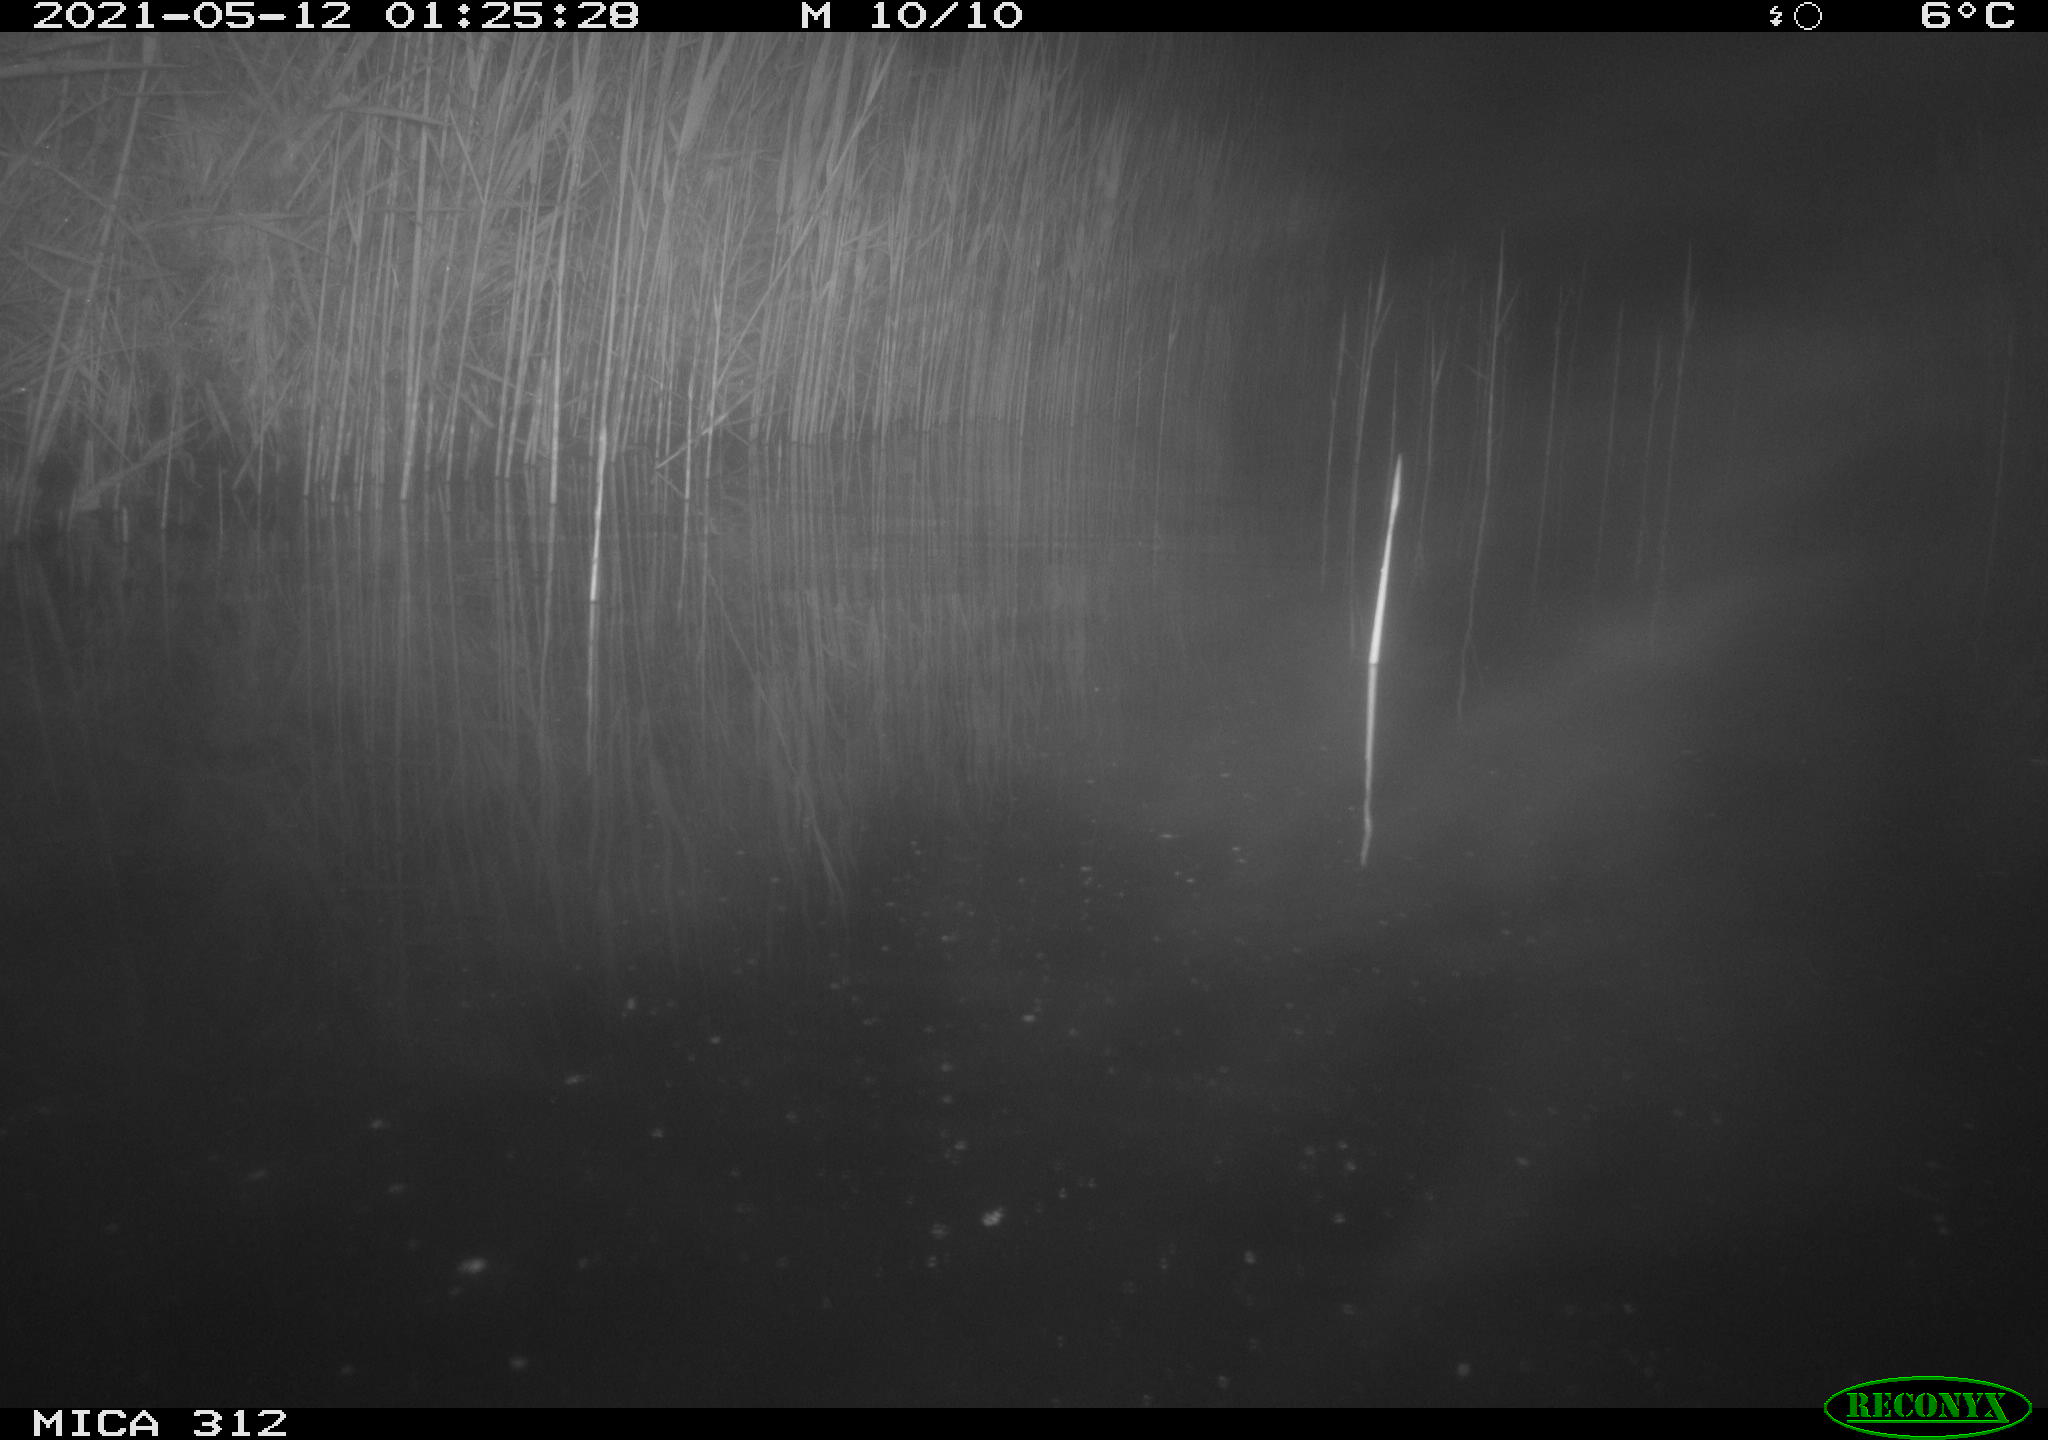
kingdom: Animalia
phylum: Chordata
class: Mammalia
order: Rodentia
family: Muridae
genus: Rattus
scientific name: Rattus norvegicus
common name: Brown rat
